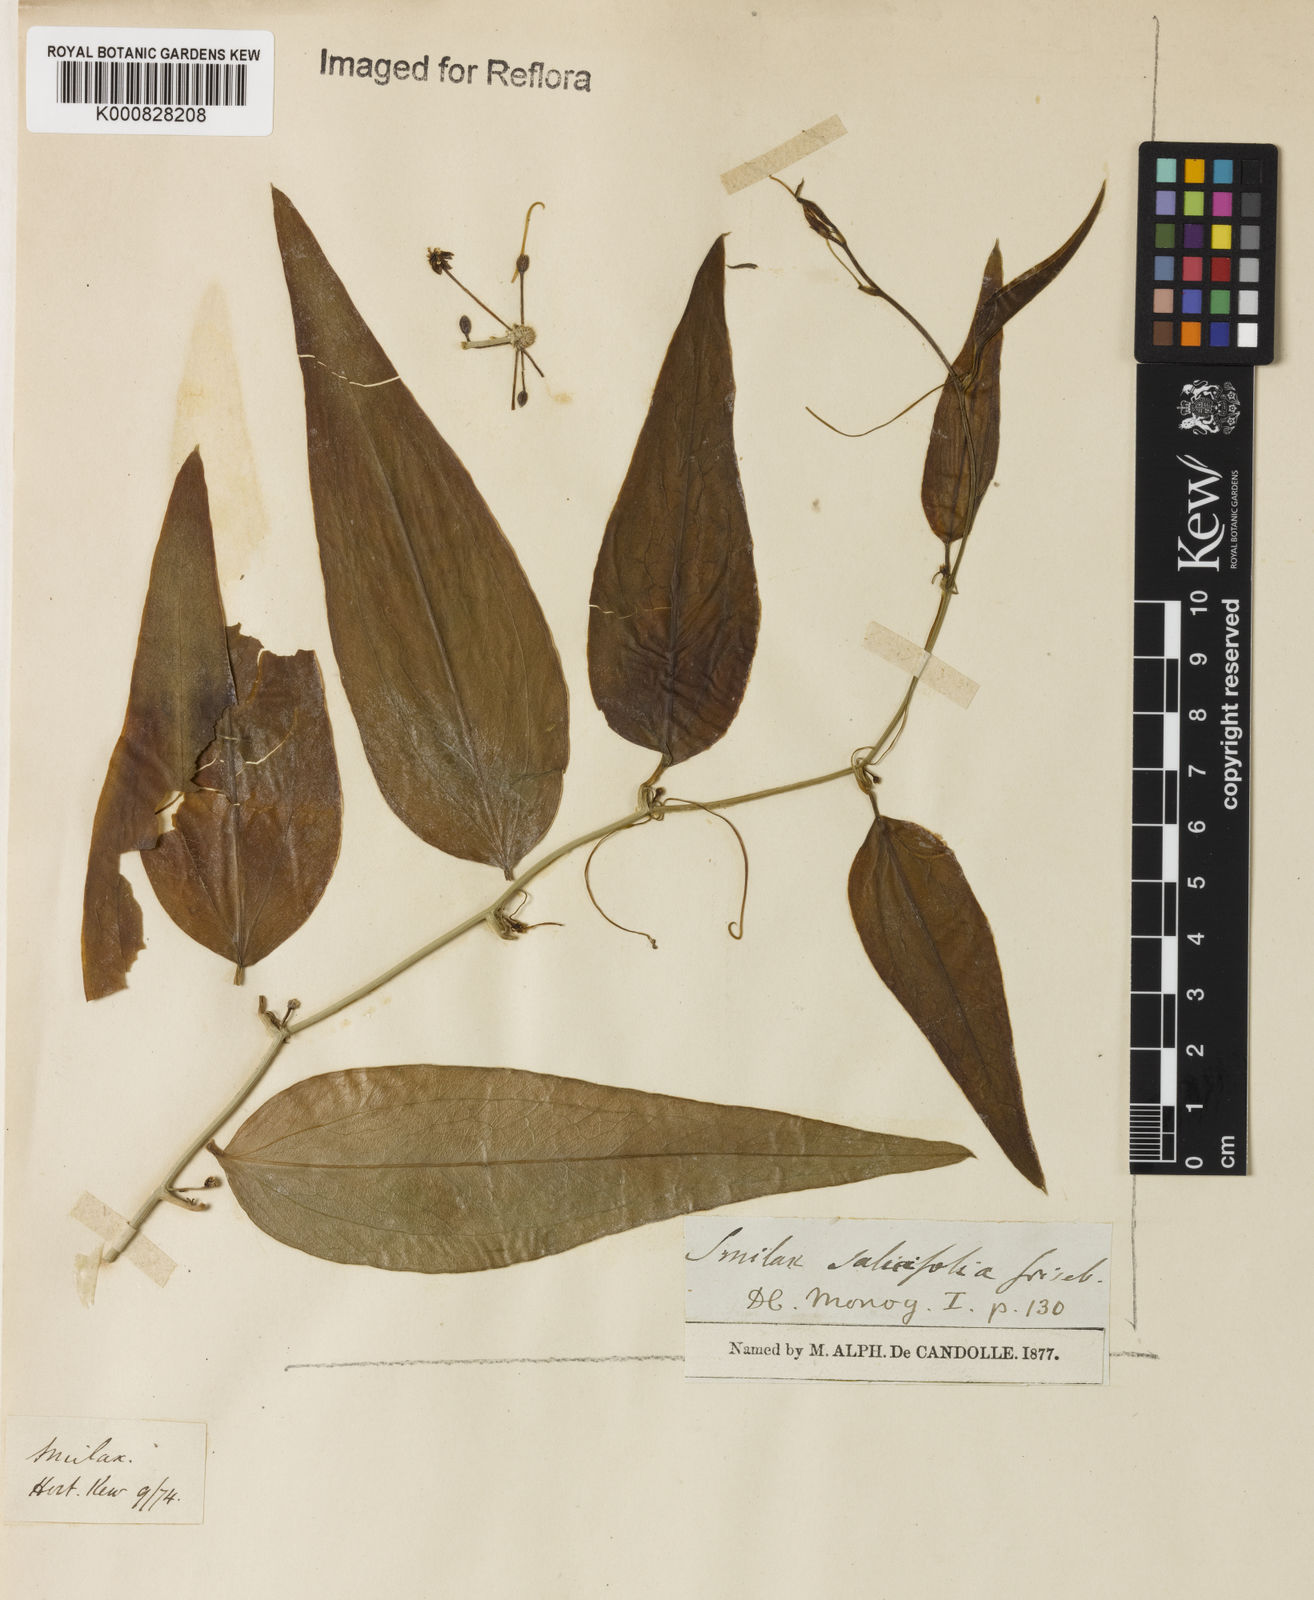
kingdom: Plantae
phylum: Tracheophyta
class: Liliopsida
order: Liliales
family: Smilacaceae
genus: Smilax
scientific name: Smilax salicifolia
